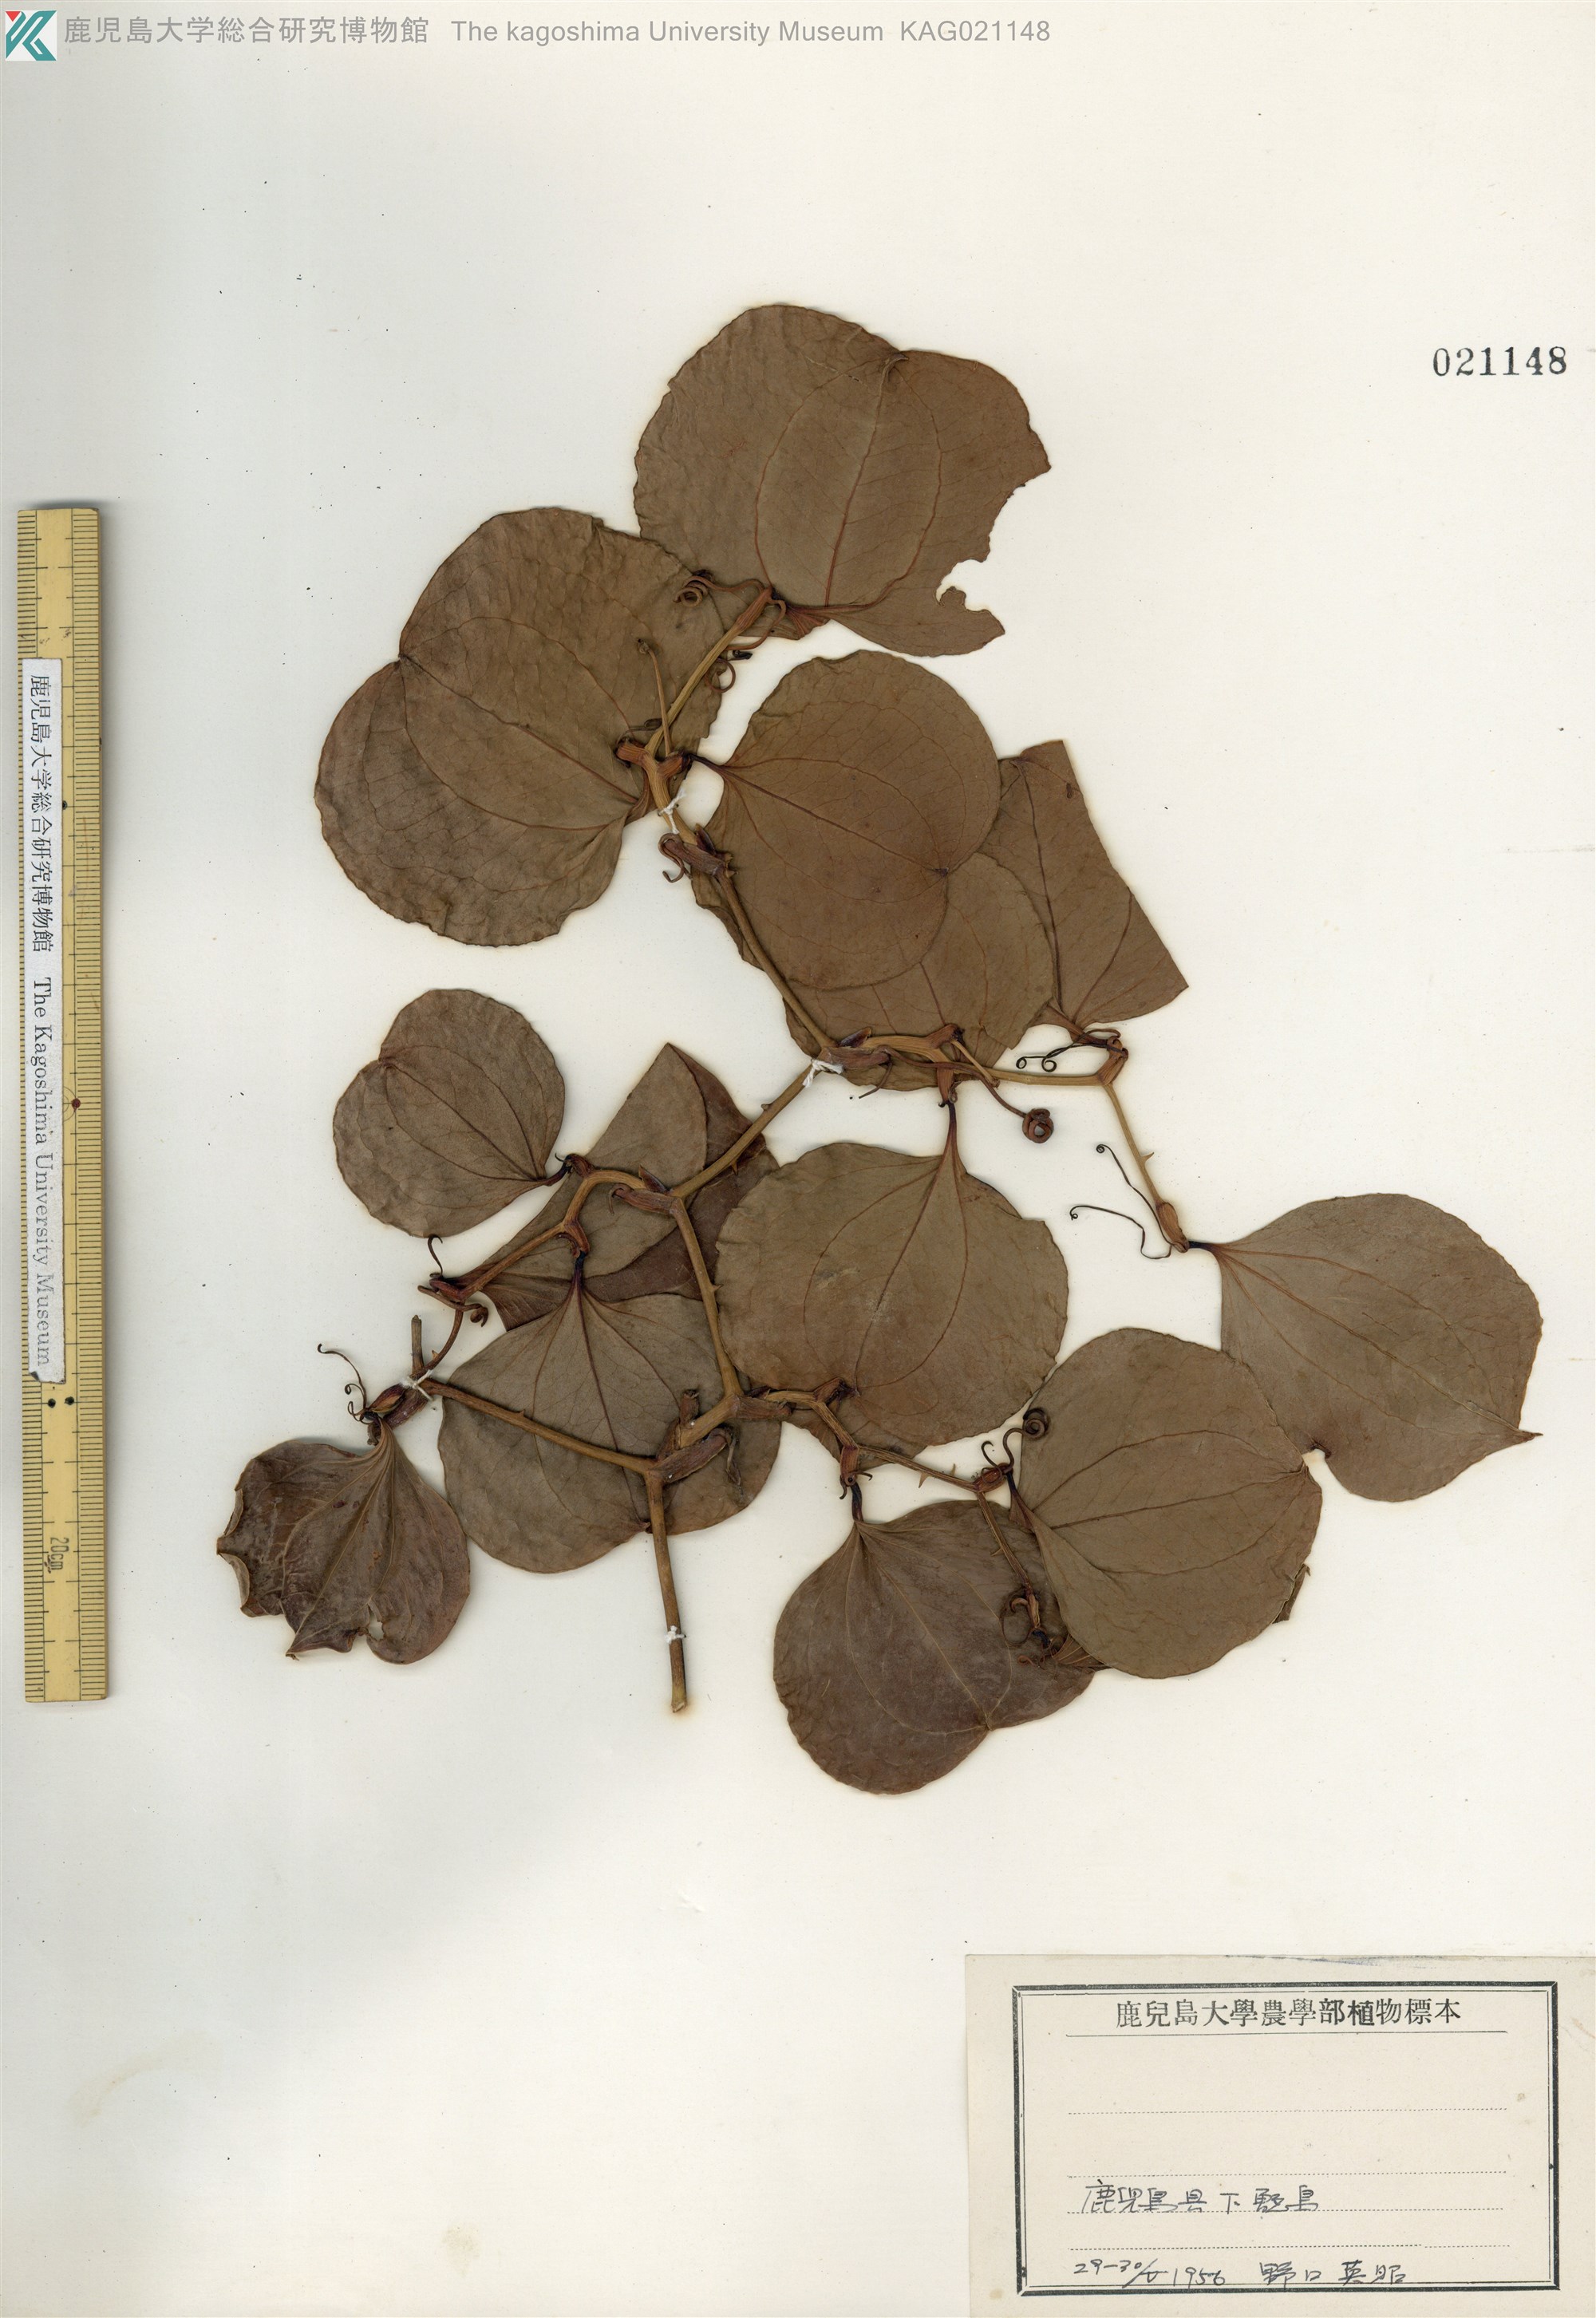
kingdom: Plantae
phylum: Tracheophyta
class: Liliopsida
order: Liliales
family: Smilacaceae
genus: Smilax
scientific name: Smilax china
